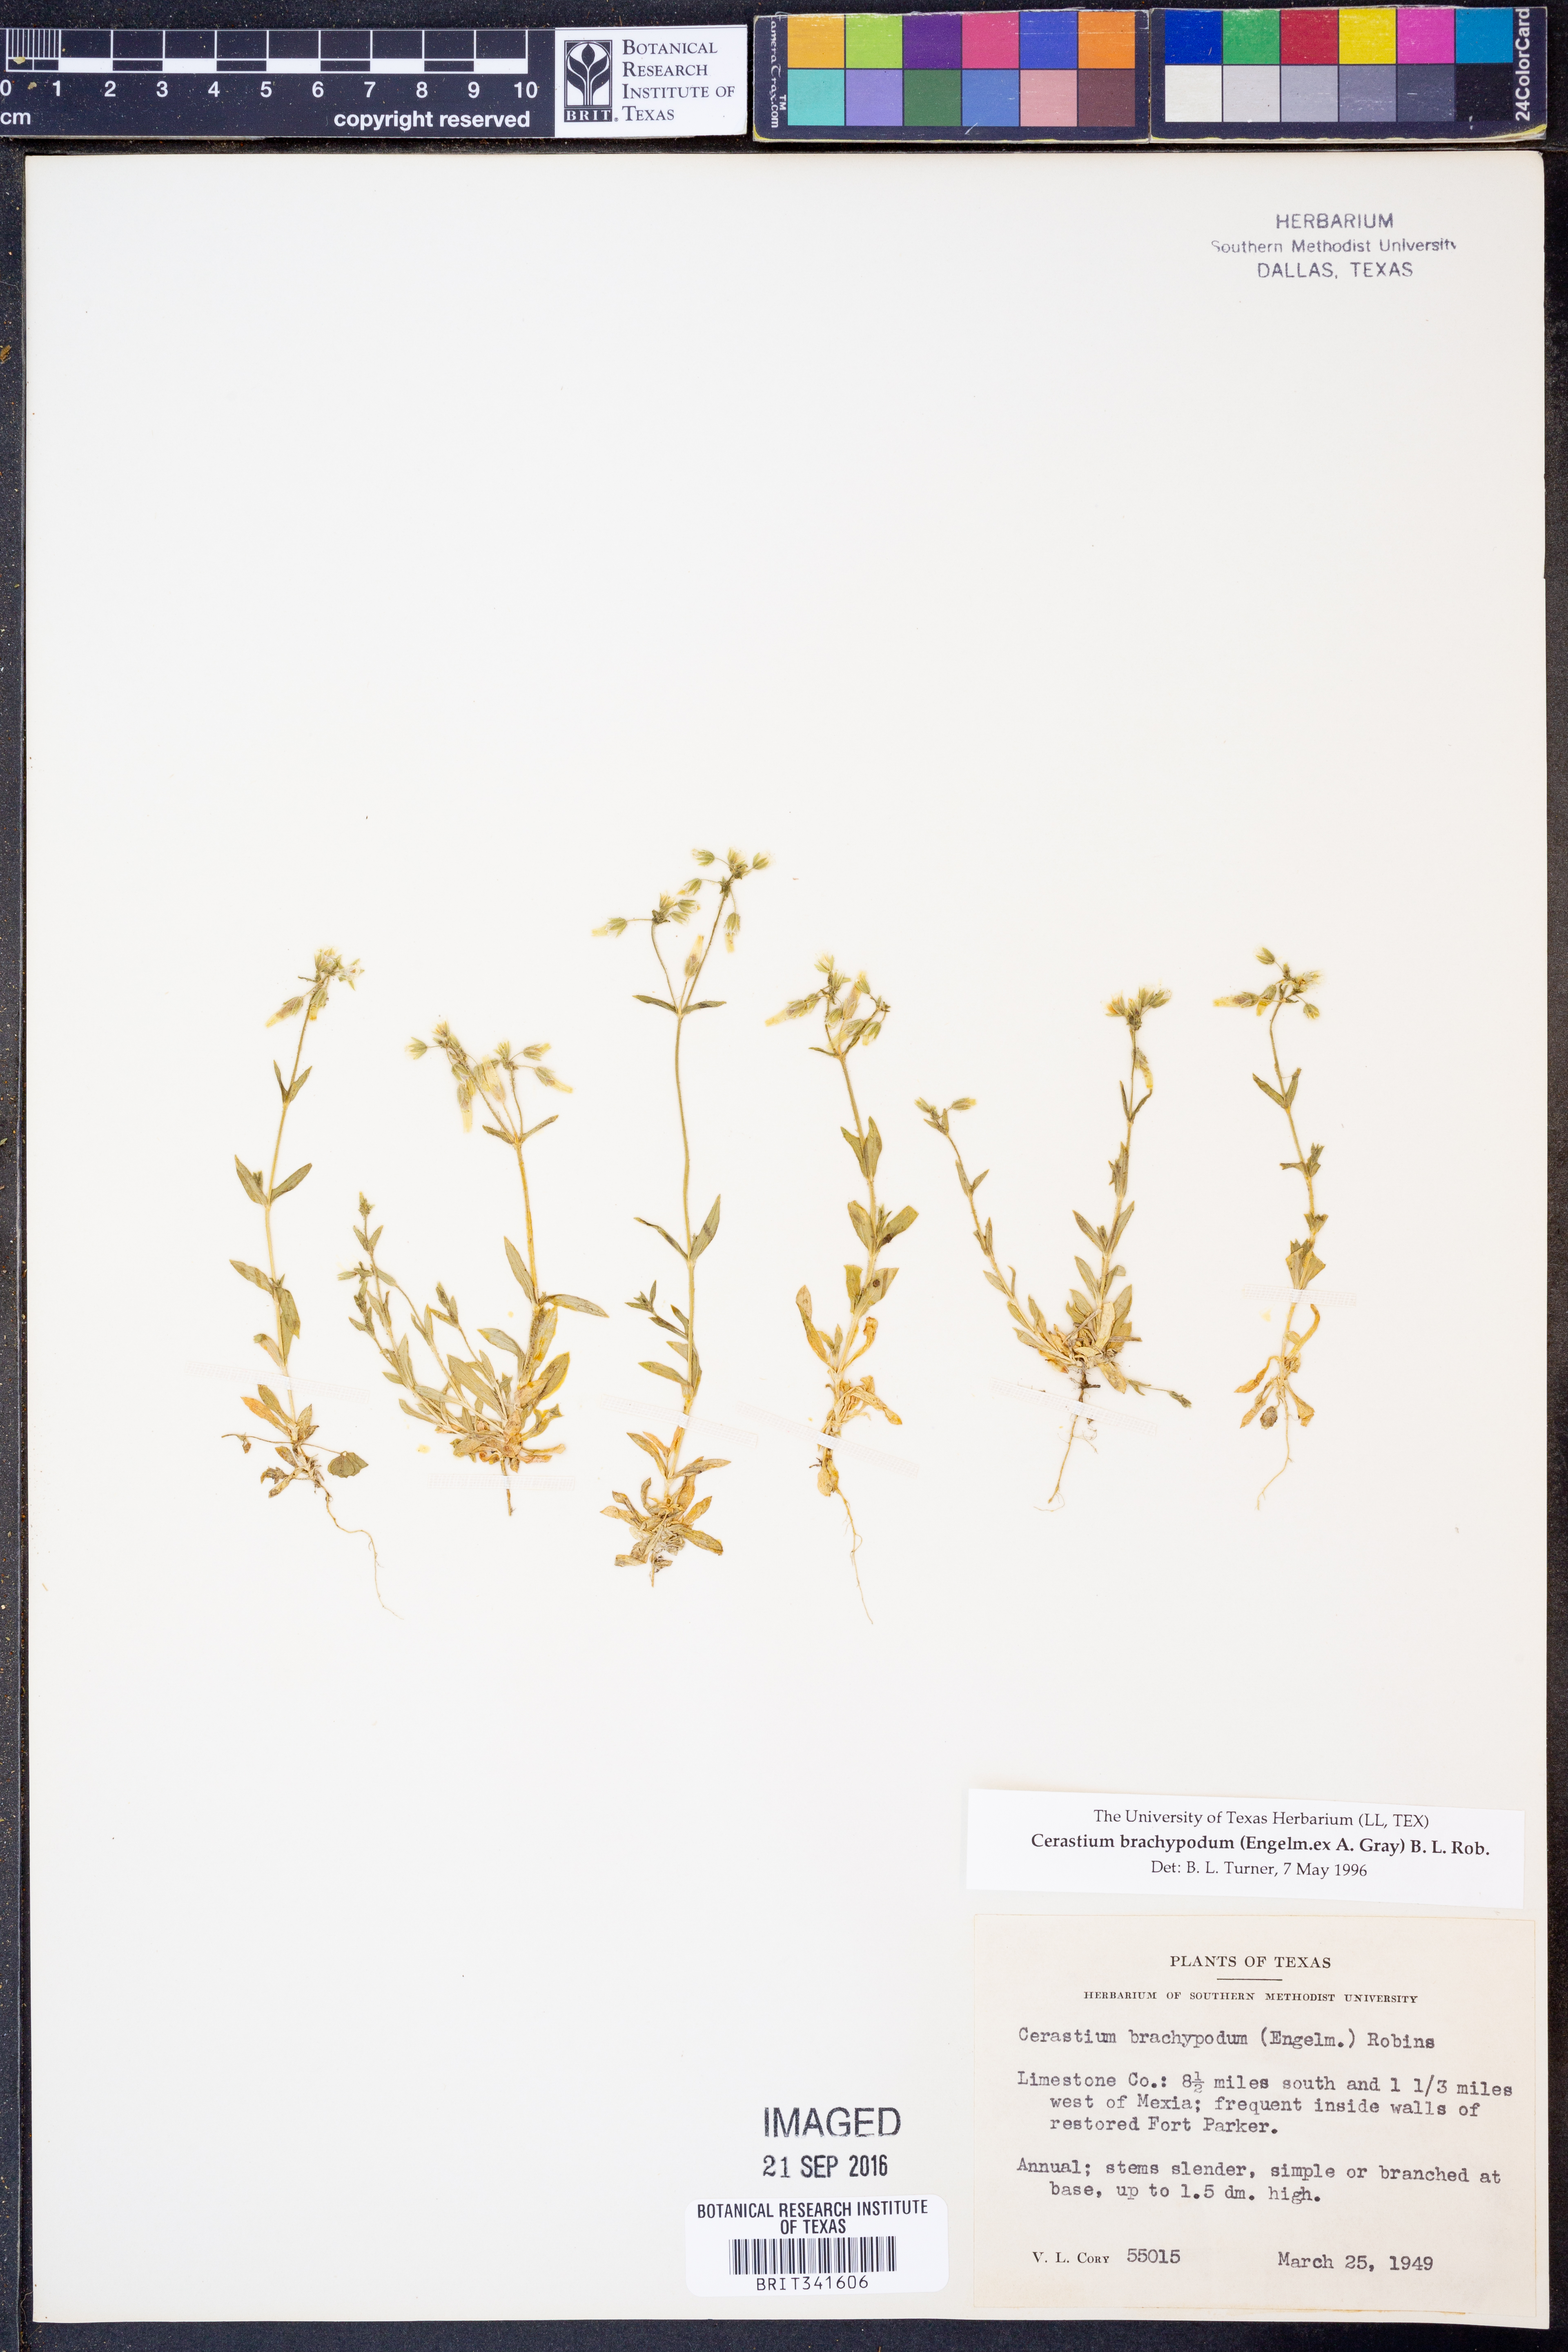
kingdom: Plantae
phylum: Tracheophyta
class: Magnoliopsida
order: Caryophyllales
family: Caryophyllaceae
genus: Cerastium
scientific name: Cerastium brachypodum
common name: Short-pedicelled nodding chickweed
